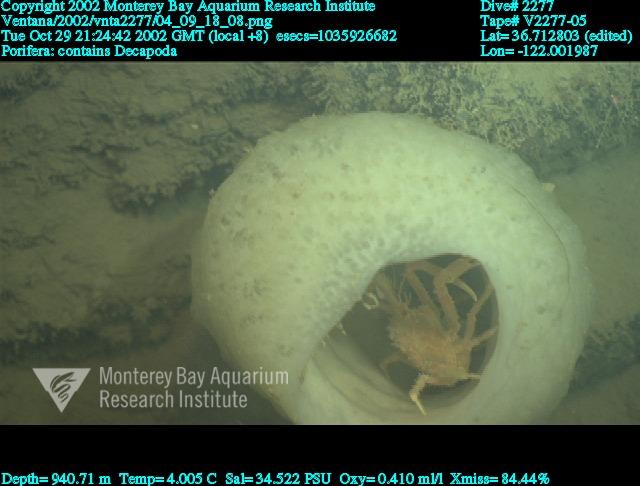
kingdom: Animalia
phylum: Porifera
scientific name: Porifera
